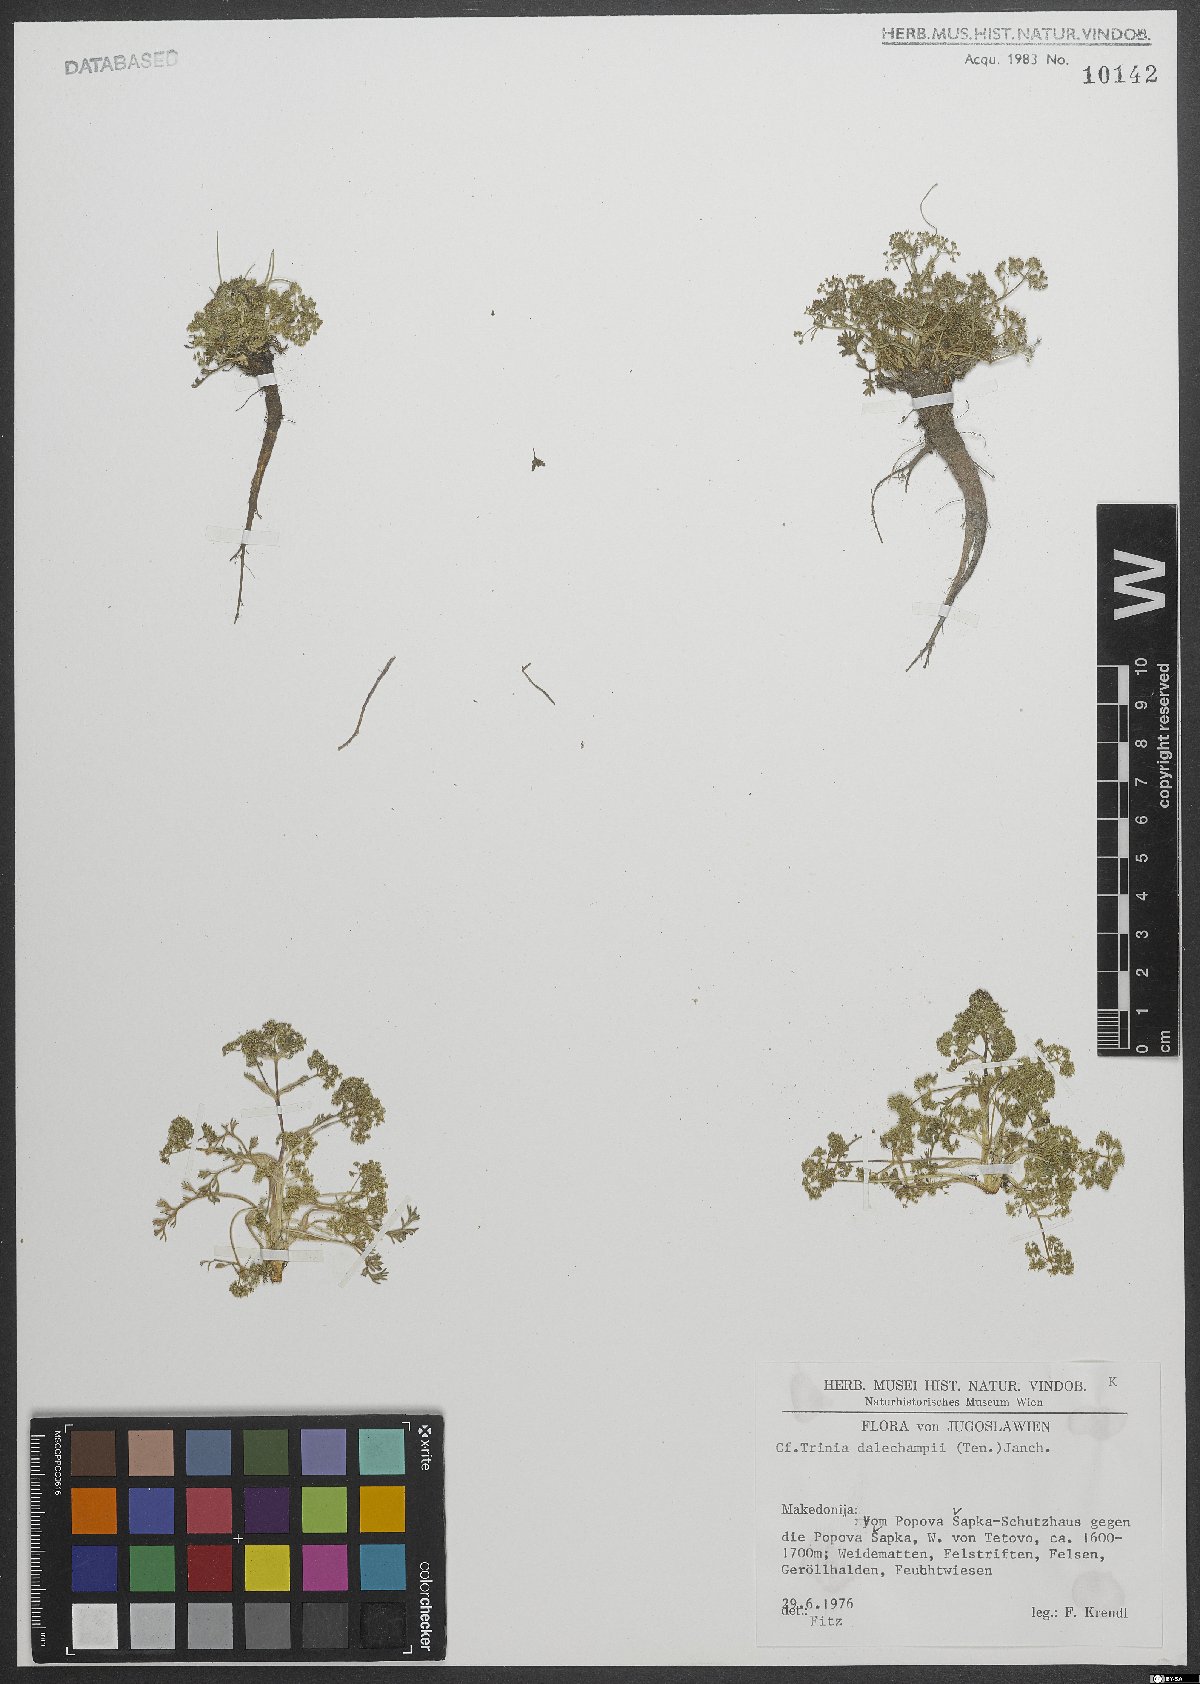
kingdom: Plantae
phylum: Tracheophyta
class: Magnoliopsida
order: Apiales
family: Apiaceae
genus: Trinia
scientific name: Trinia dalechampii
